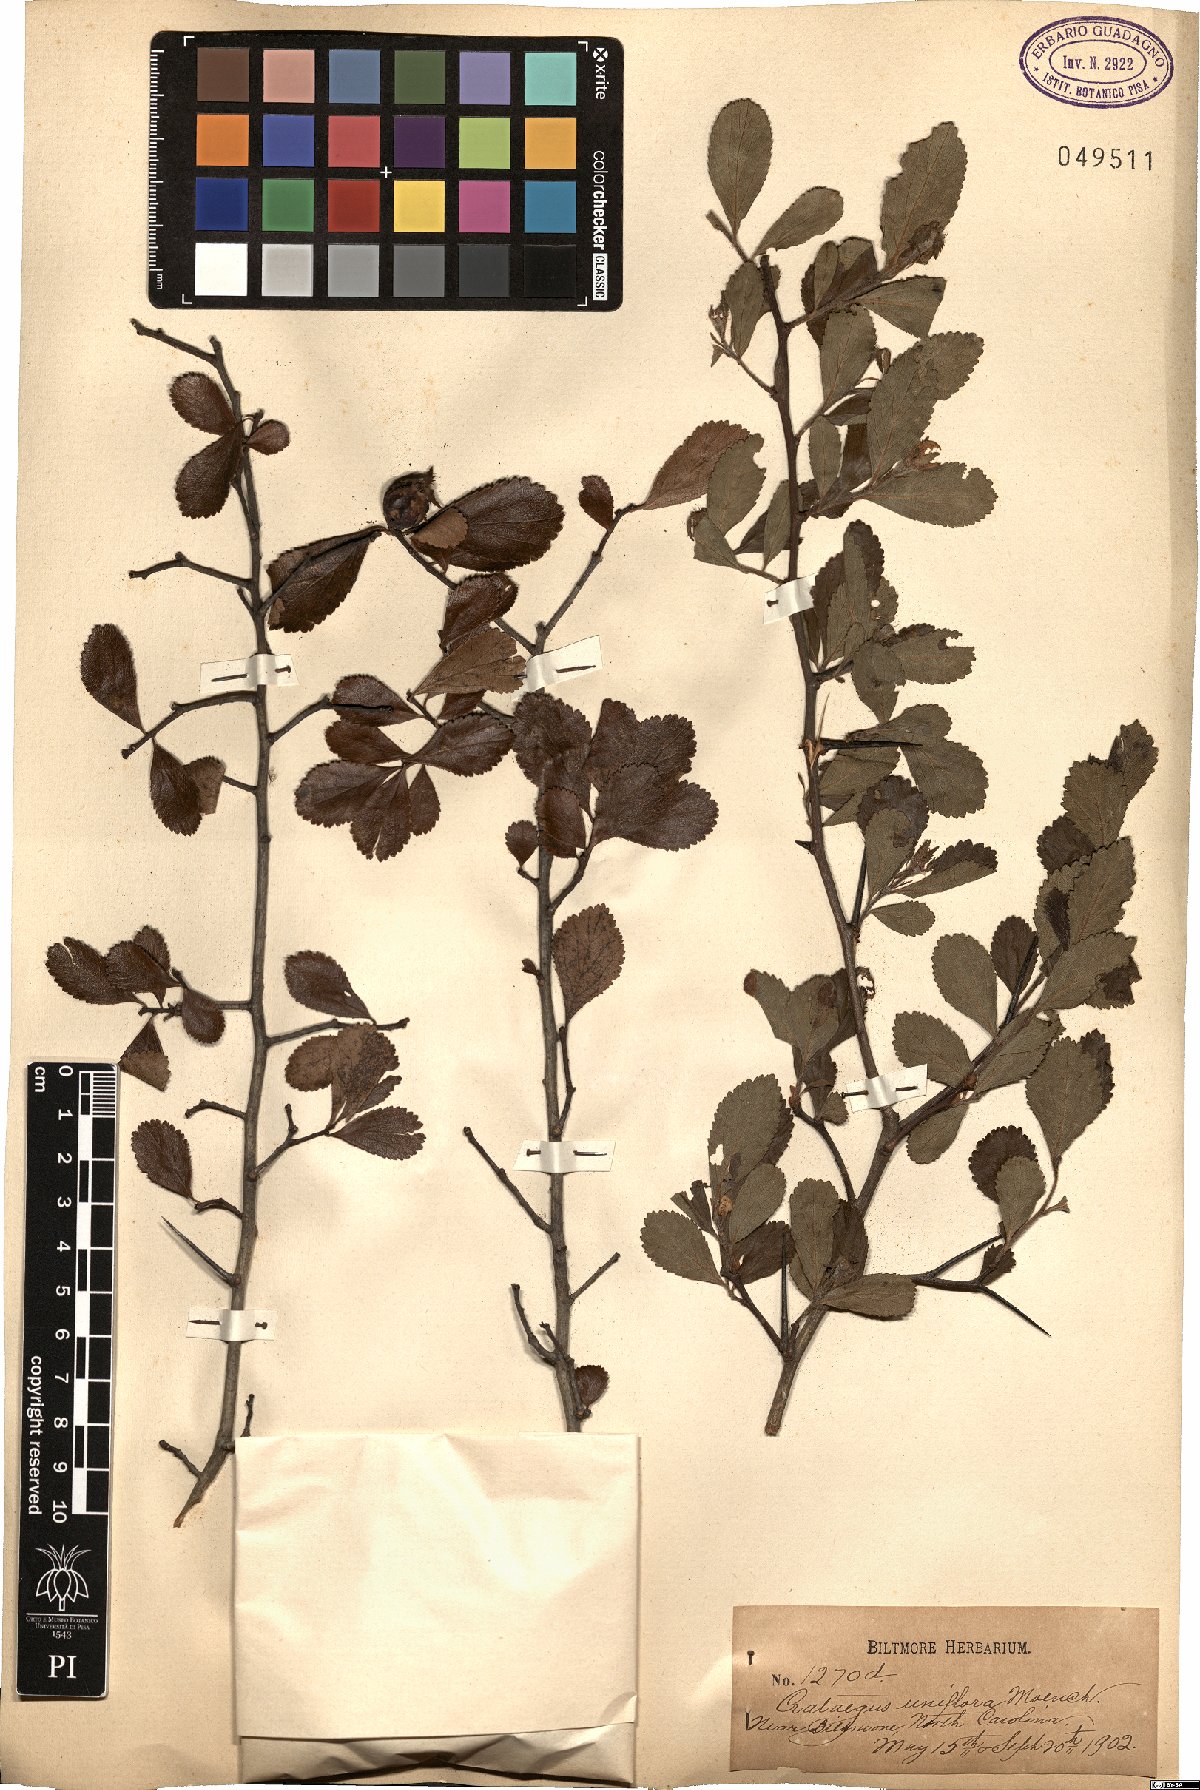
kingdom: Plantae
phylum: Tracheophyta
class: Magnoliopsida
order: Rosales
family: Rosaceae
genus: Crataegus
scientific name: Crataegus uniflora
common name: One-flower hawthorn
